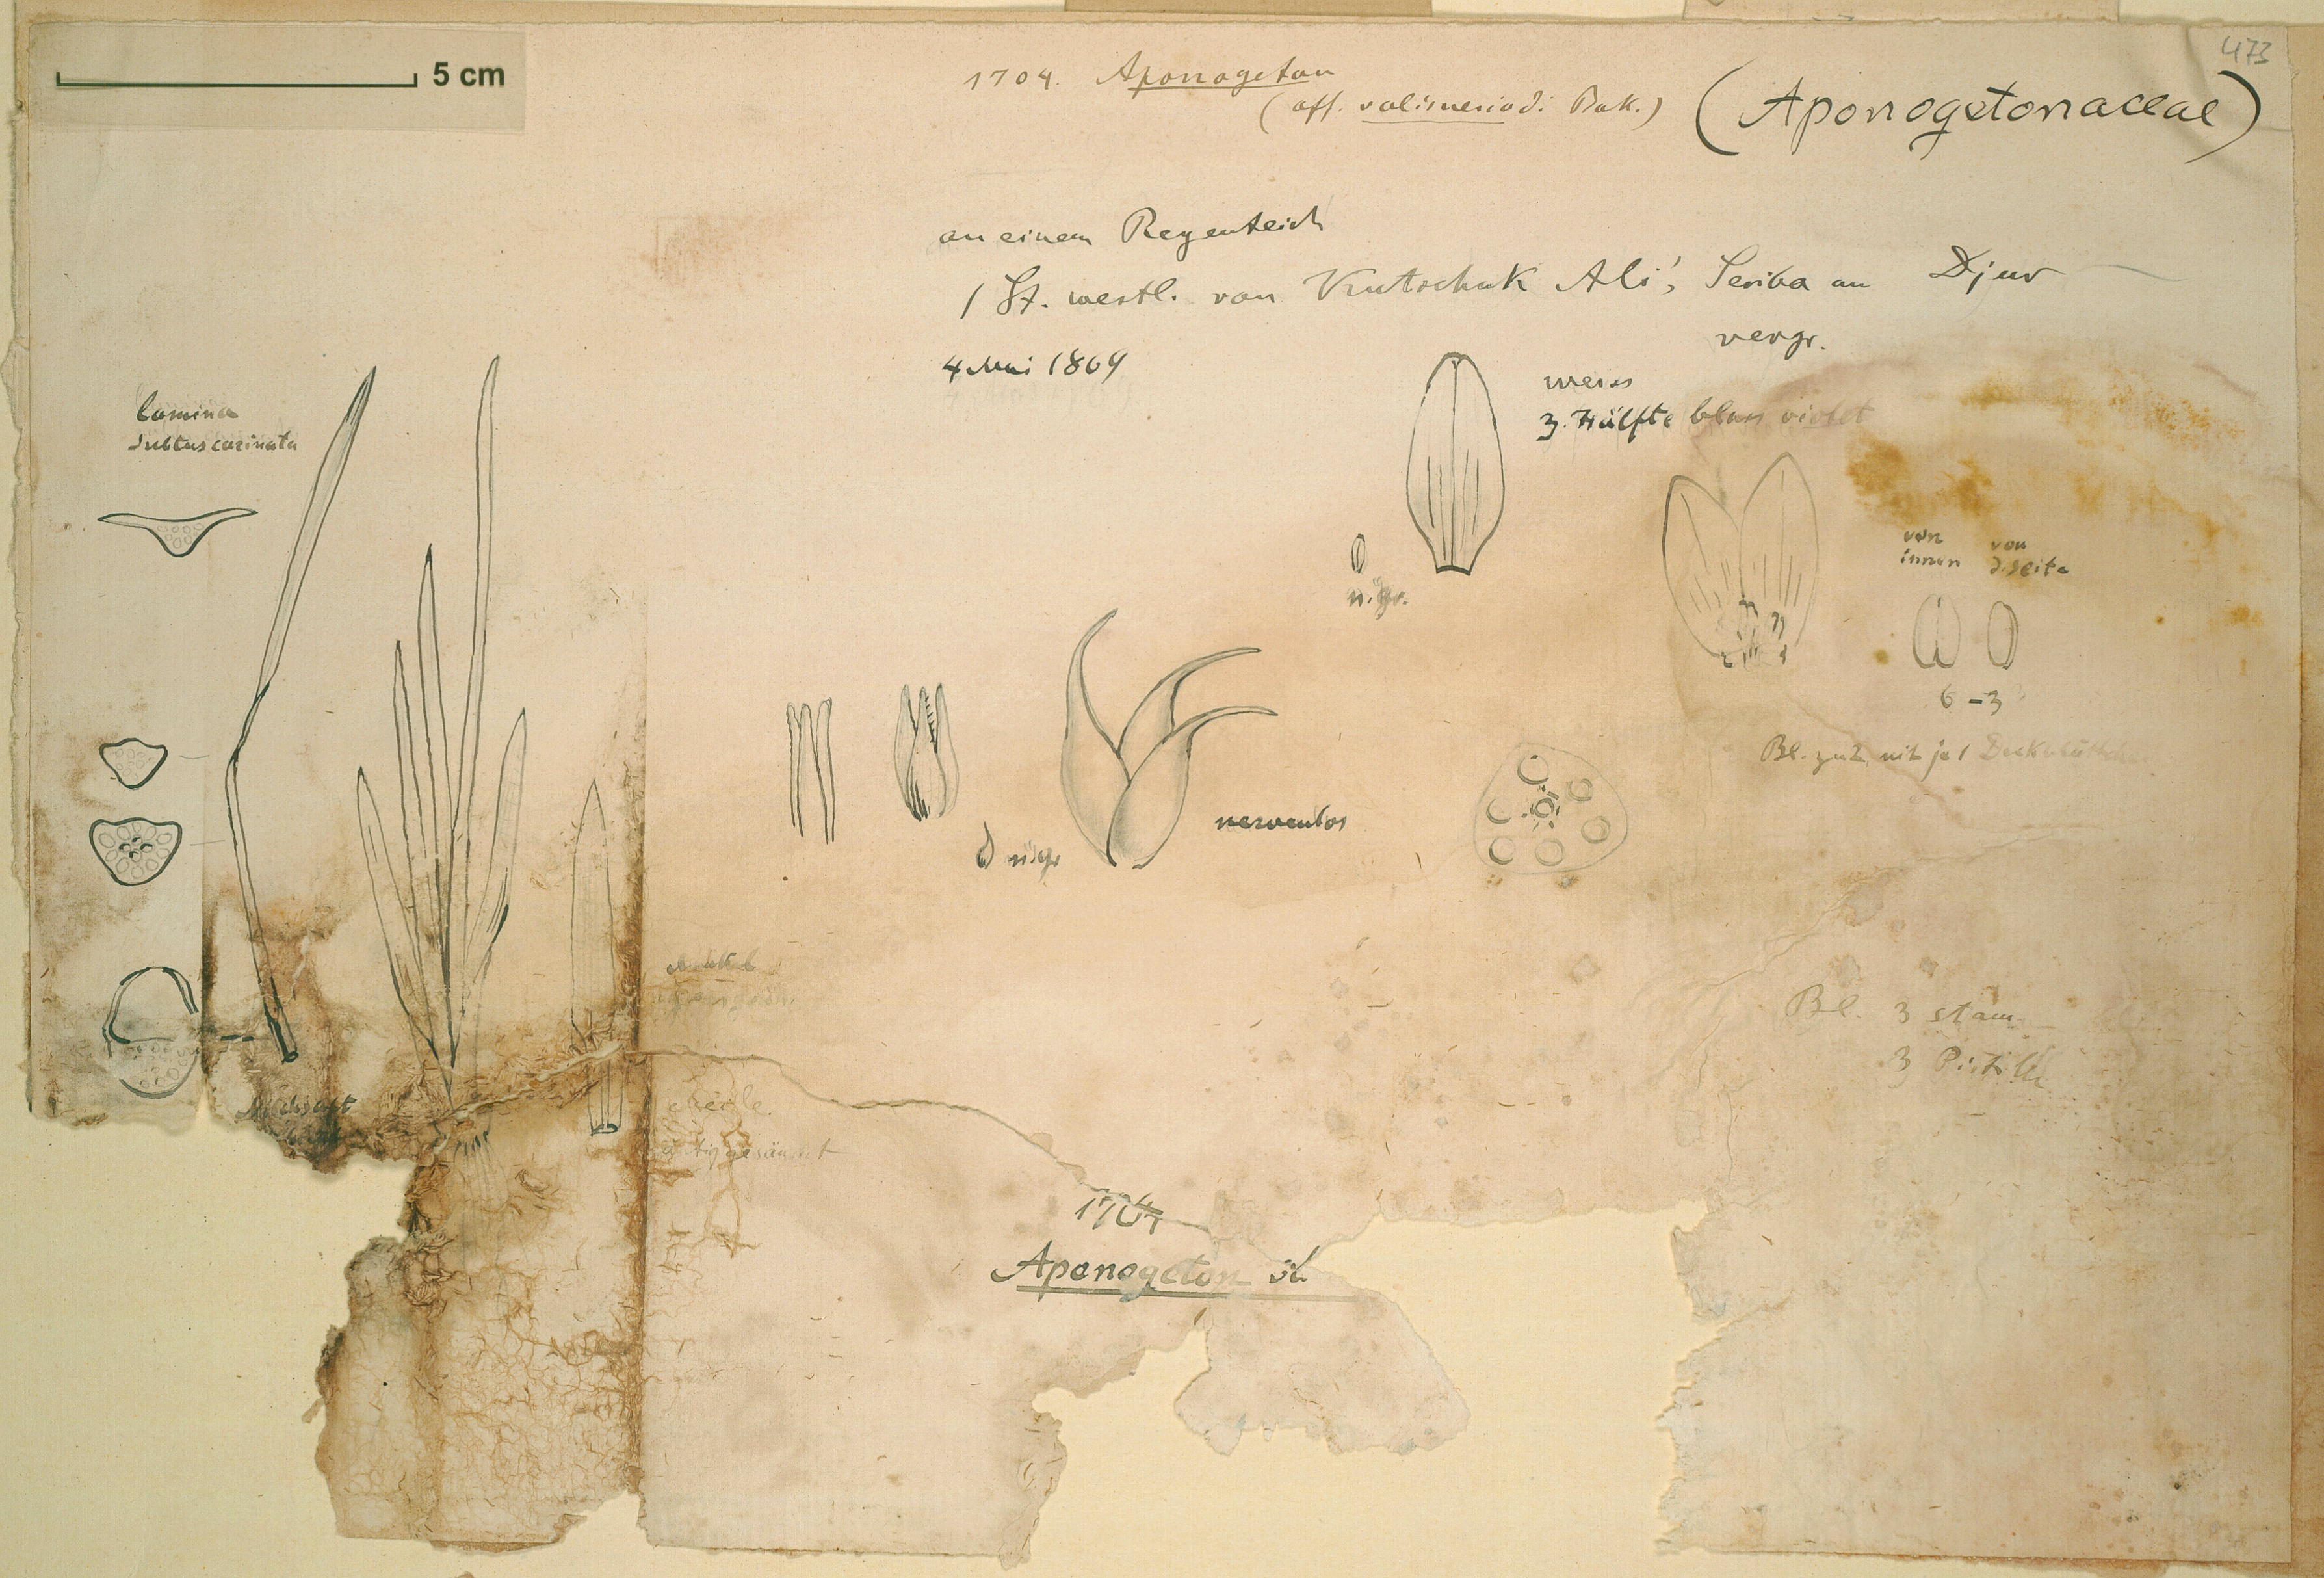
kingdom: Plantae
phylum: Tracheophyta
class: Liliopsida
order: Alismatales
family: Aponogetonaceae
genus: Aponogeton
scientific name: Aponogeton vallisnerioides
